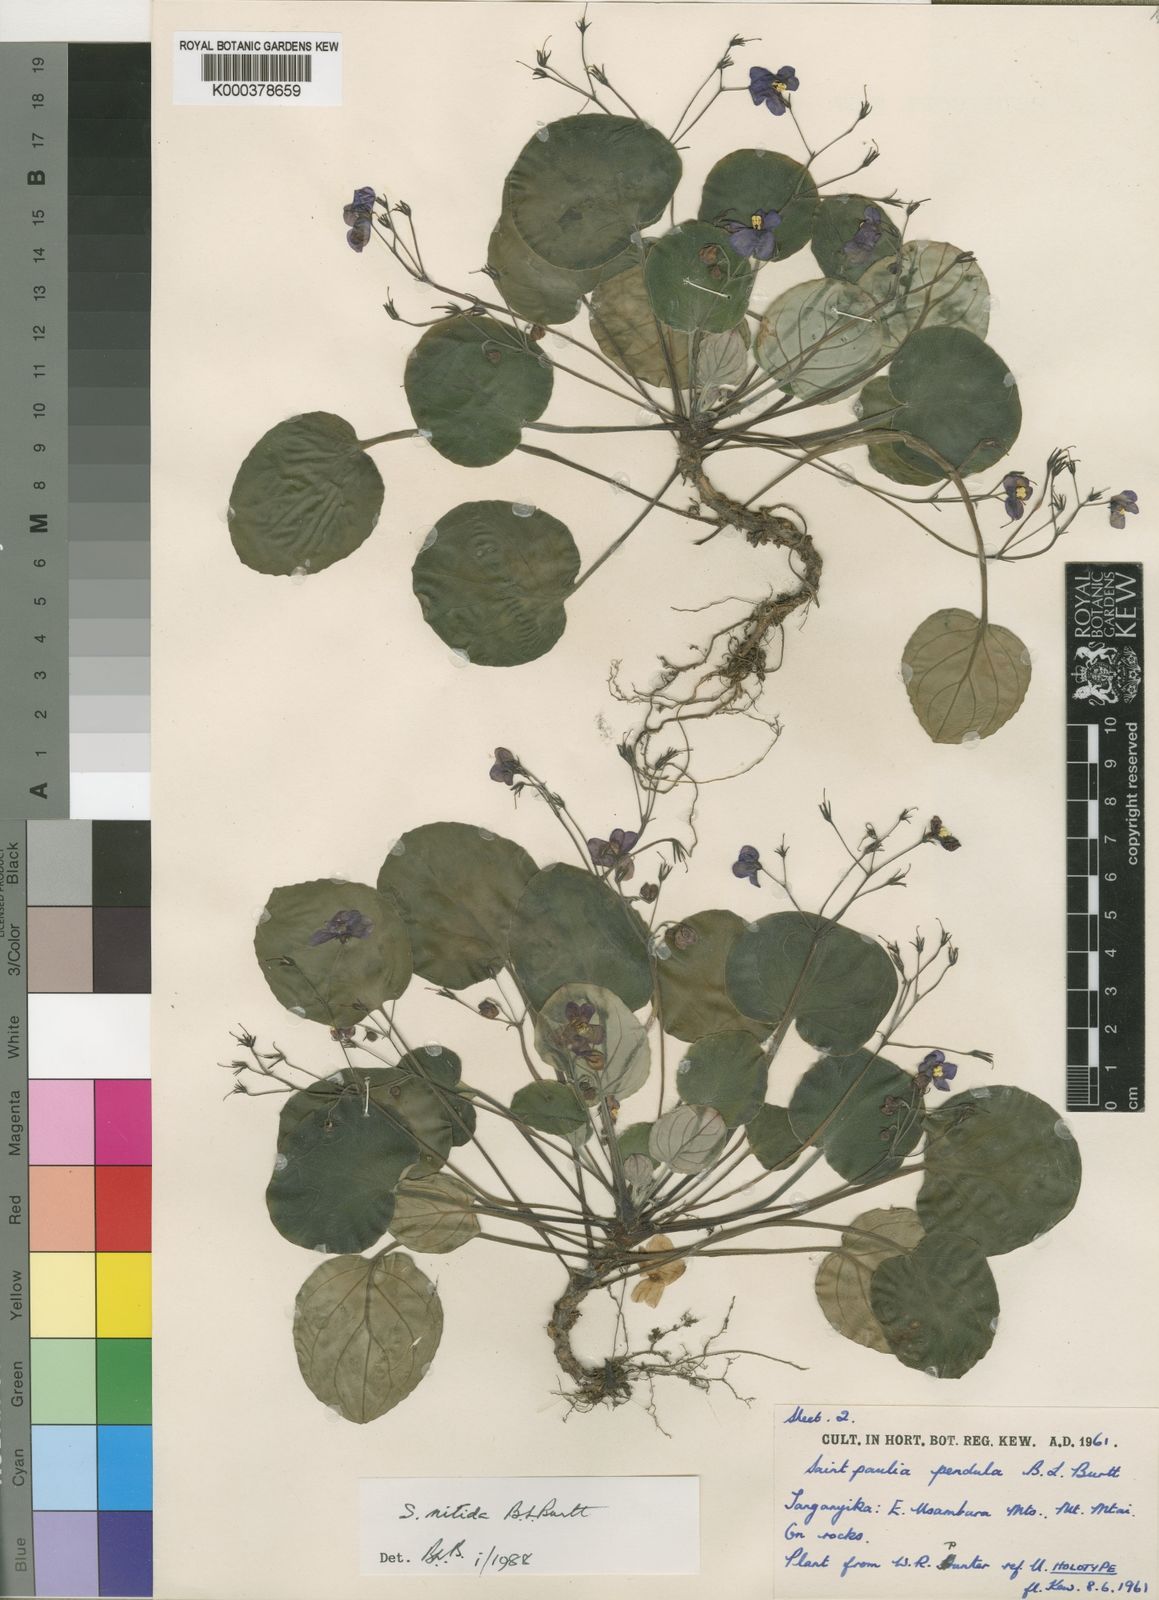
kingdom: Plantae
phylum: Tracheophyta
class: Magnoliopsida
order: Lamiales
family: Gesneriaceae
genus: Streptocarpus
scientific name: Streptocarpus nitidus
